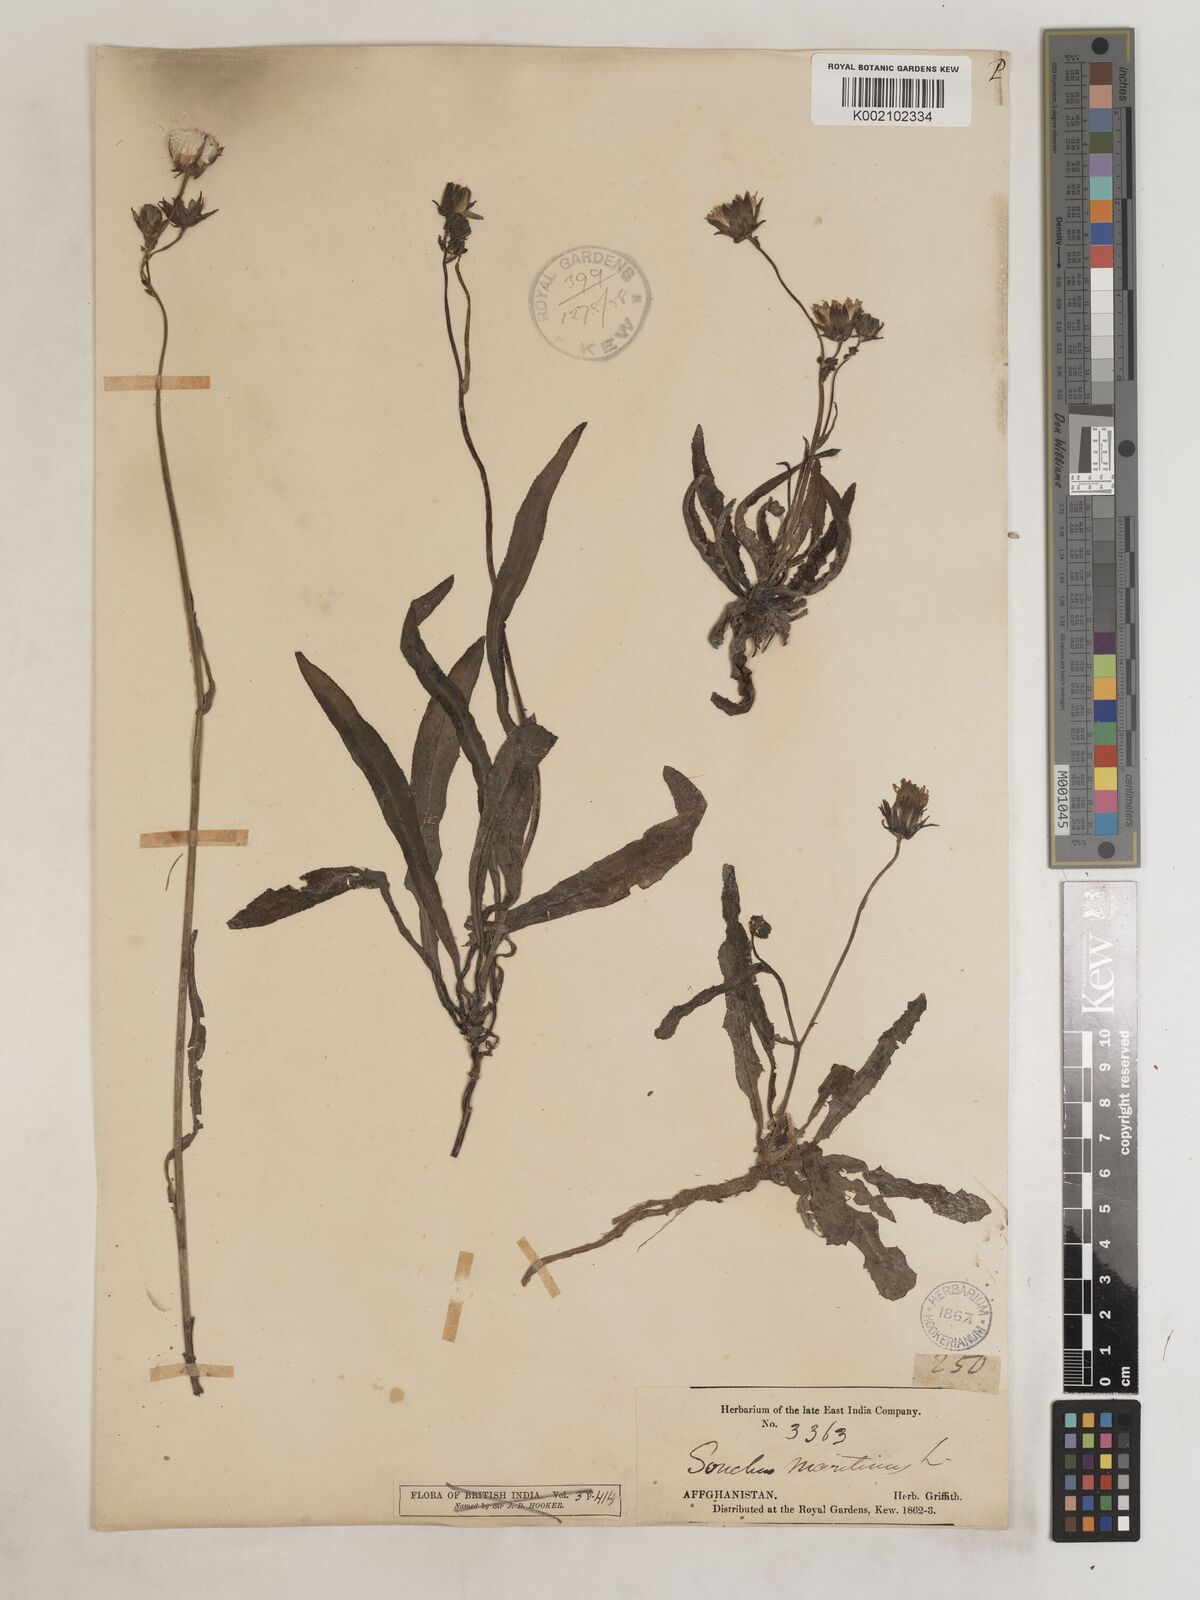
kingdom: Plantae
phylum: Tracheophyta
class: Magnoliopsida
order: Asterales
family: Asteraceae
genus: Sonchus
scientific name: Sonchus maritimus
